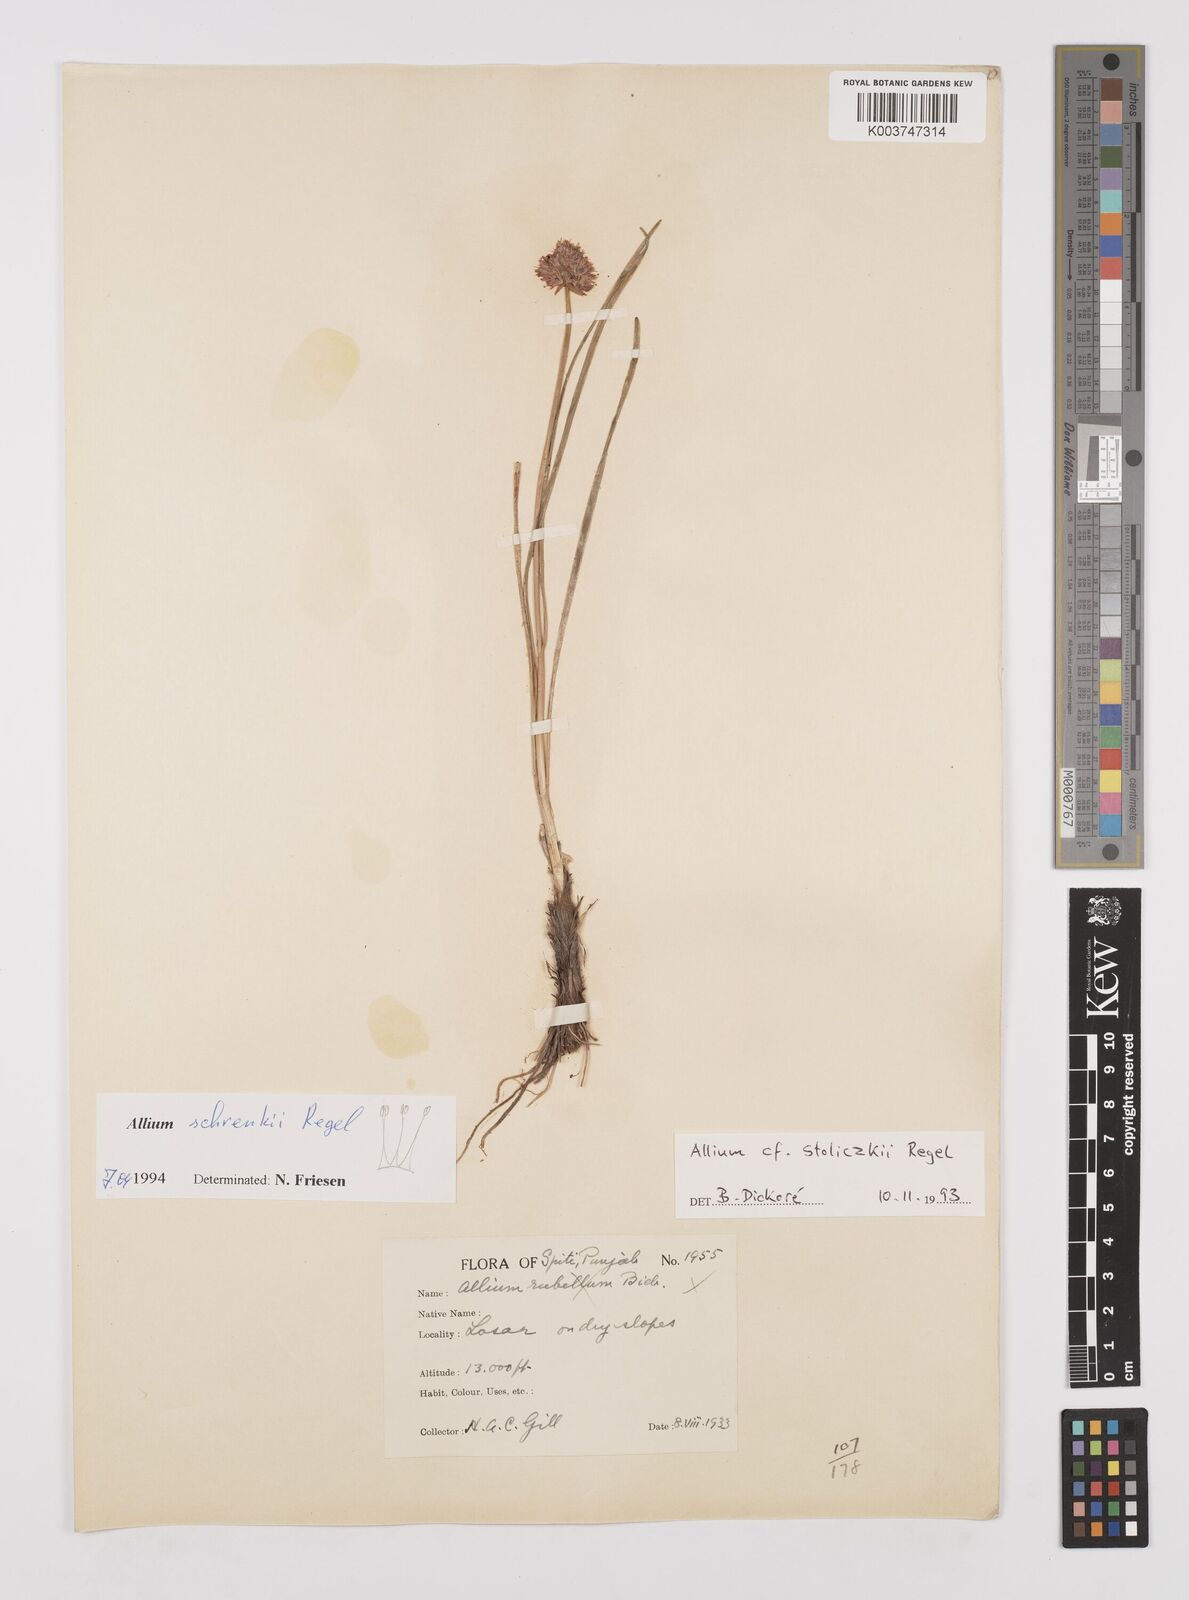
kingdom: Plantae
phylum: Tracheophyta
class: Liliopsida
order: Asparagales
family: Amaryllidaceae
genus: Allium
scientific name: Allium schrenkii
